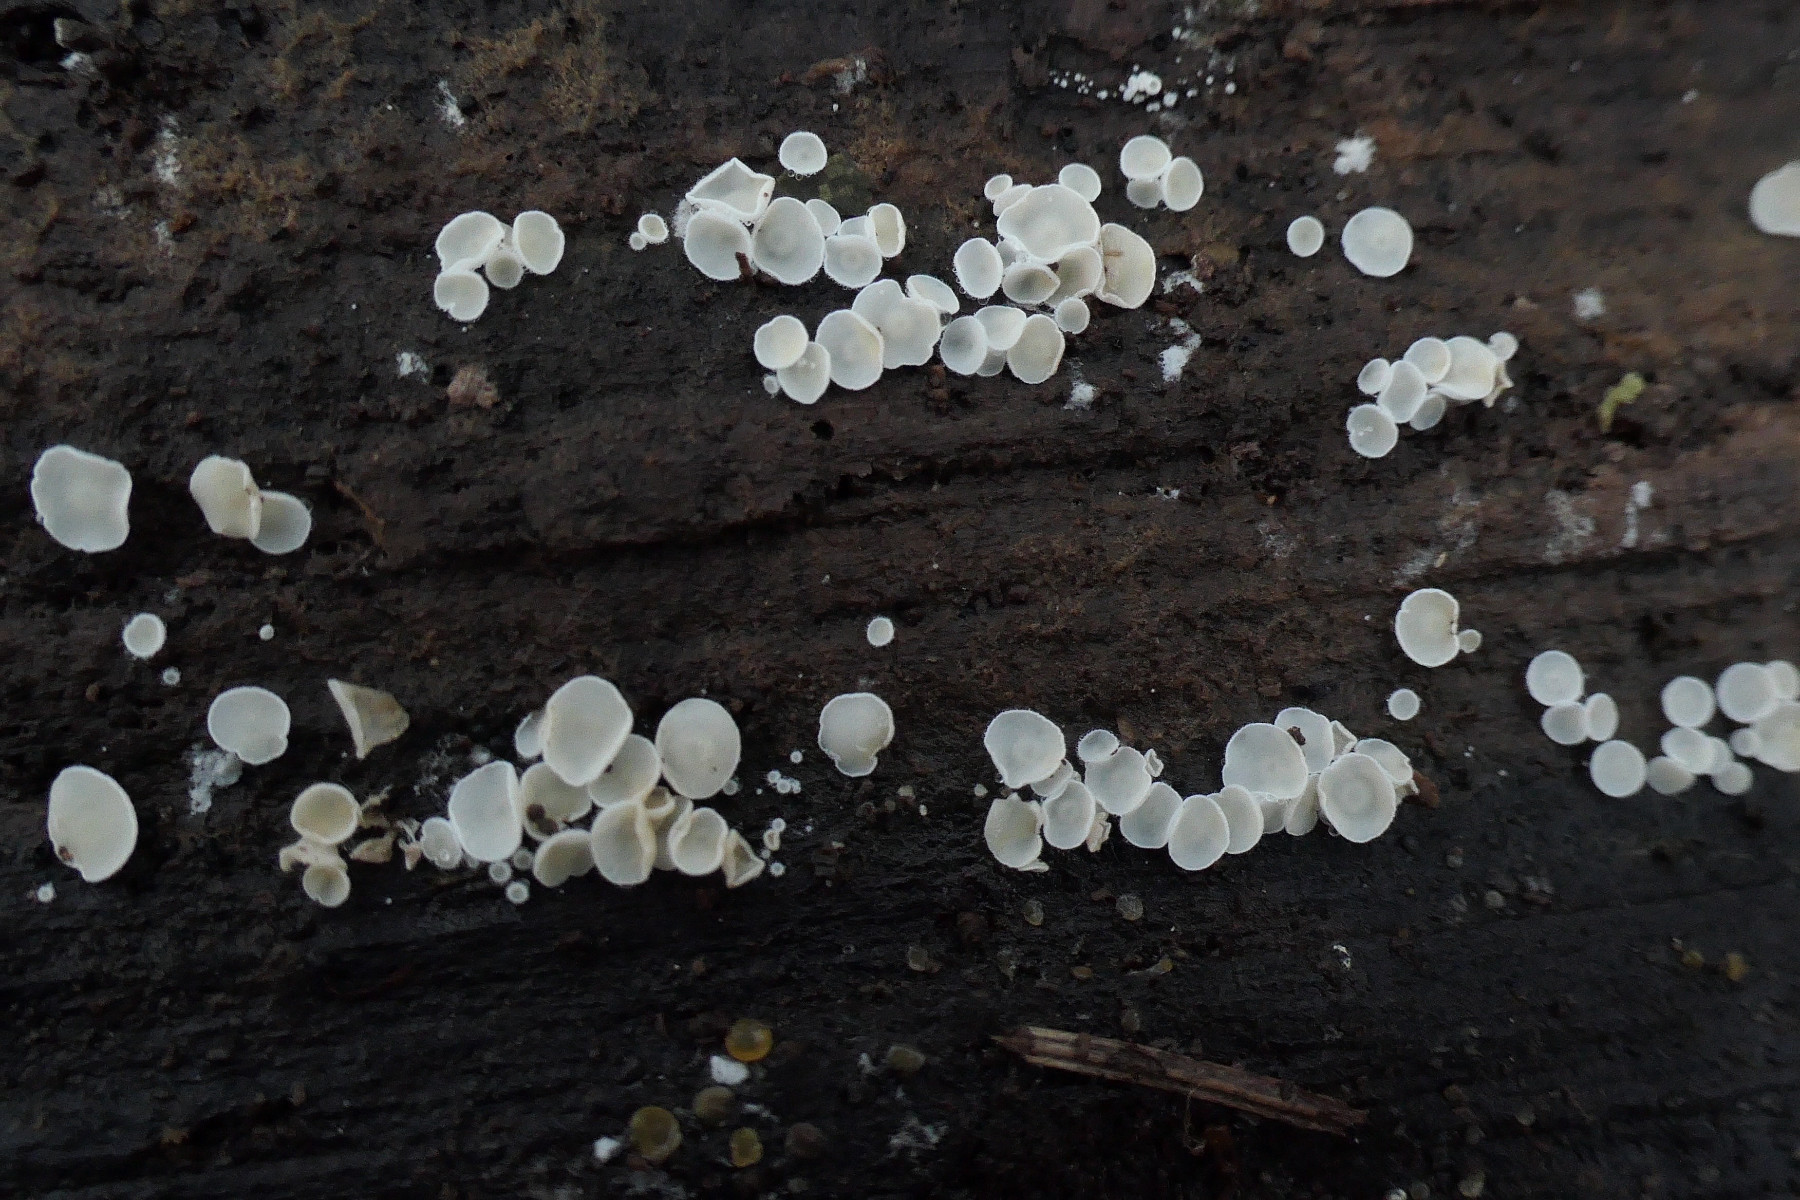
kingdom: Fungi
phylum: Ascomycota
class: Leotiomycetes
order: Helotiales
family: Lachnaceae
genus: Lachnum
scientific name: Lachnum impudicum
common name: vinter-frynseskive
